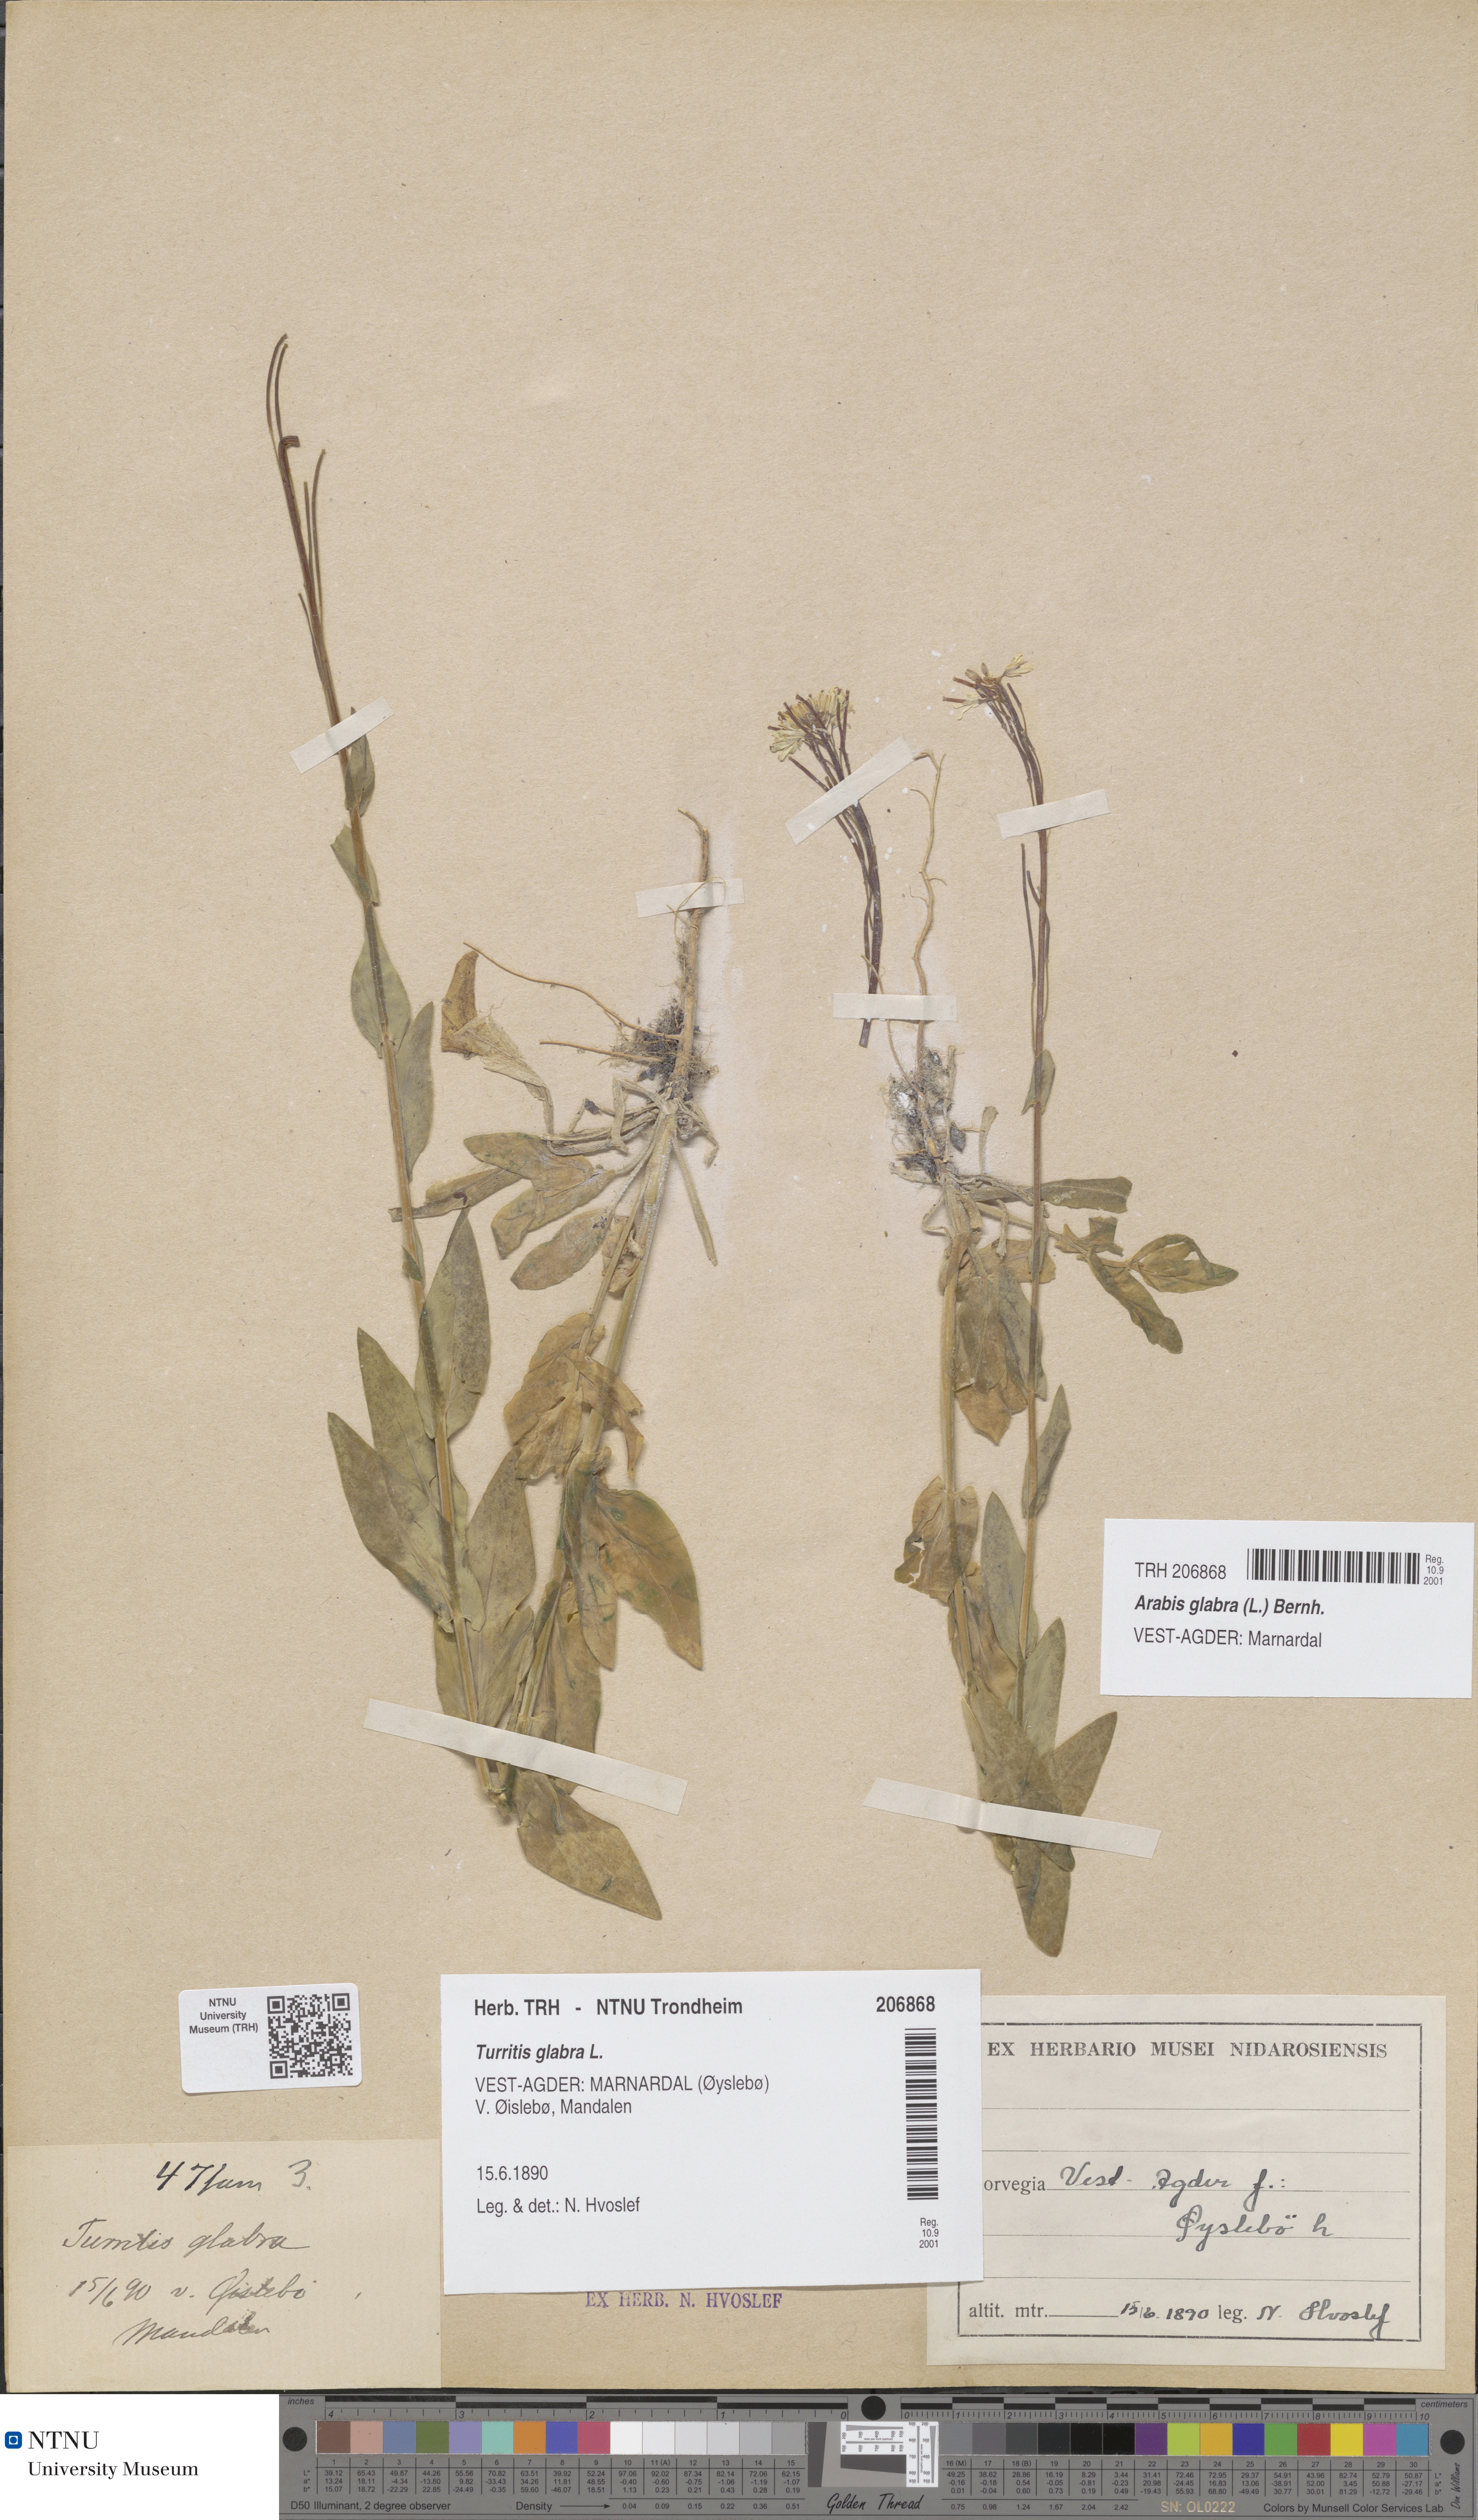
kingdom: Plantae
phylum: Tracheophyta
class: Magnoliopsida
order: Brassicales
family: Brassicaceae
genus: Turritis
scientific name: Turritis glabra
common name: Tower rockcress
